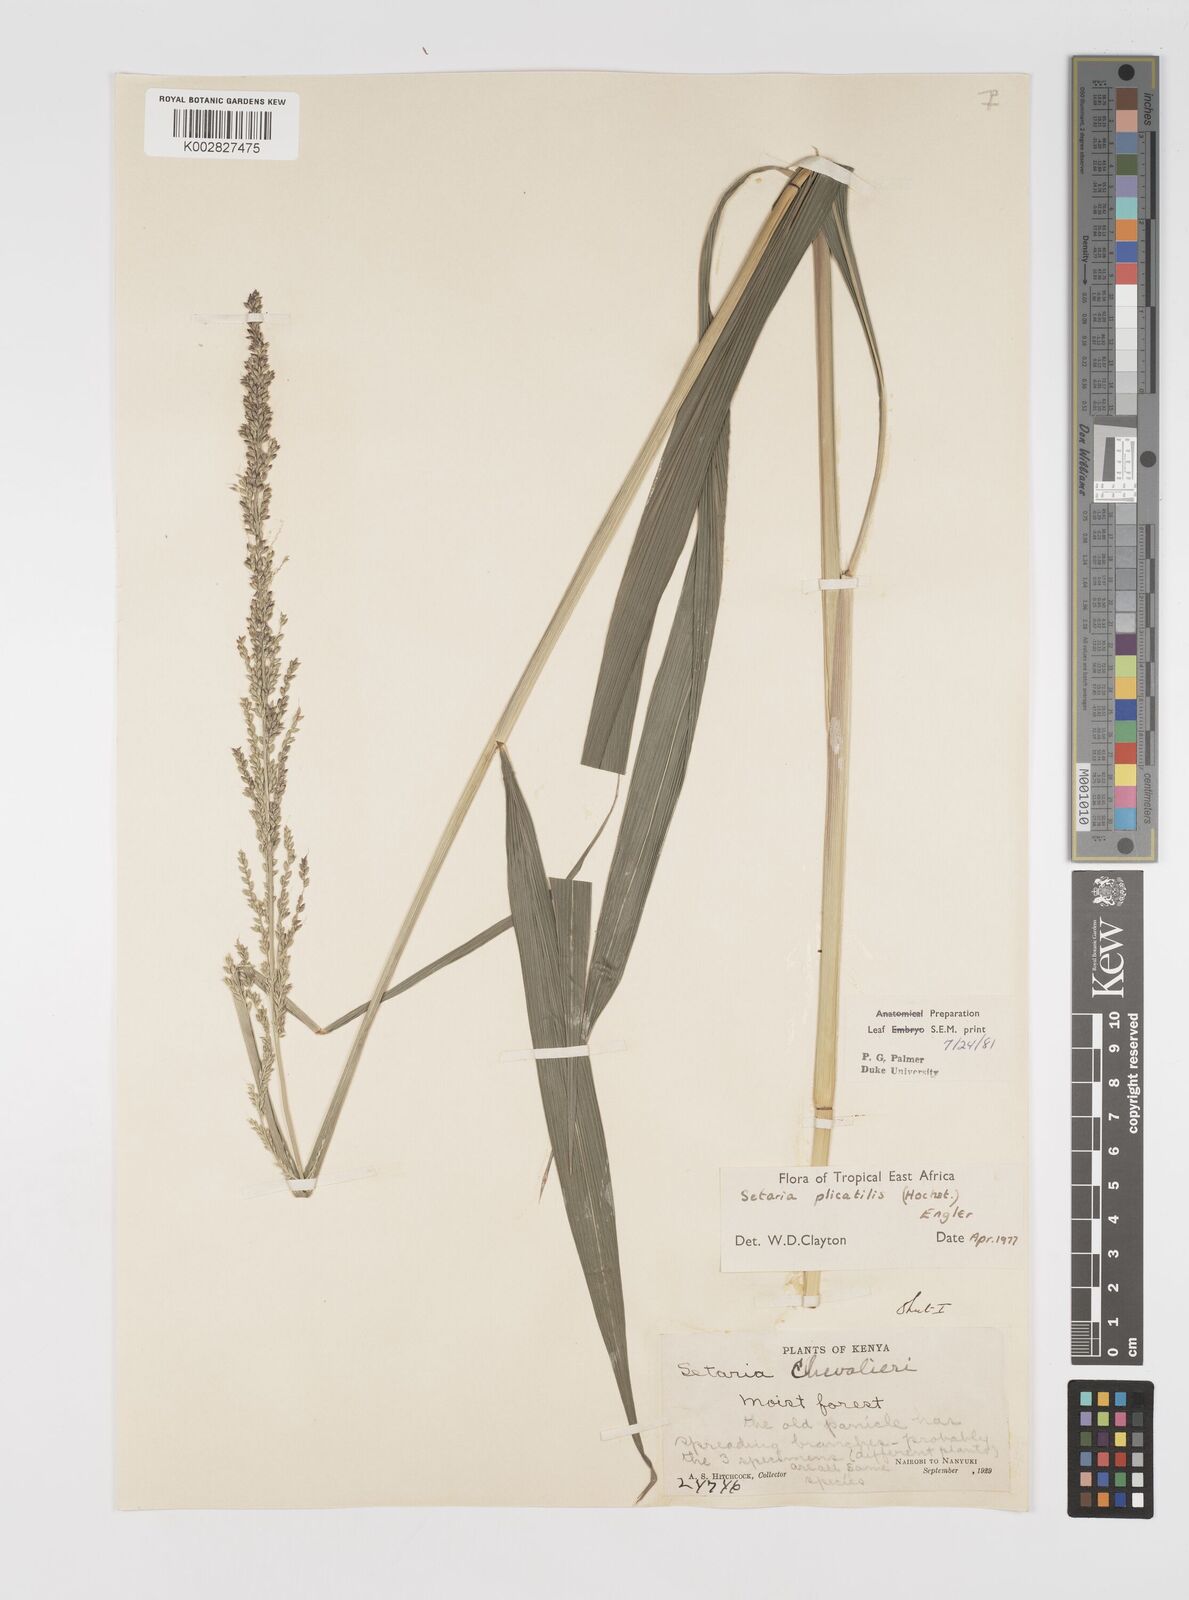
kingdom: Plantae
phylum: Tracheophyta
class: Liliopsida
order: Poales
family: Poaceae
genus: Setaria
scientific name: Setaria megaphylla
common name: Bigleaf bristlegrass
